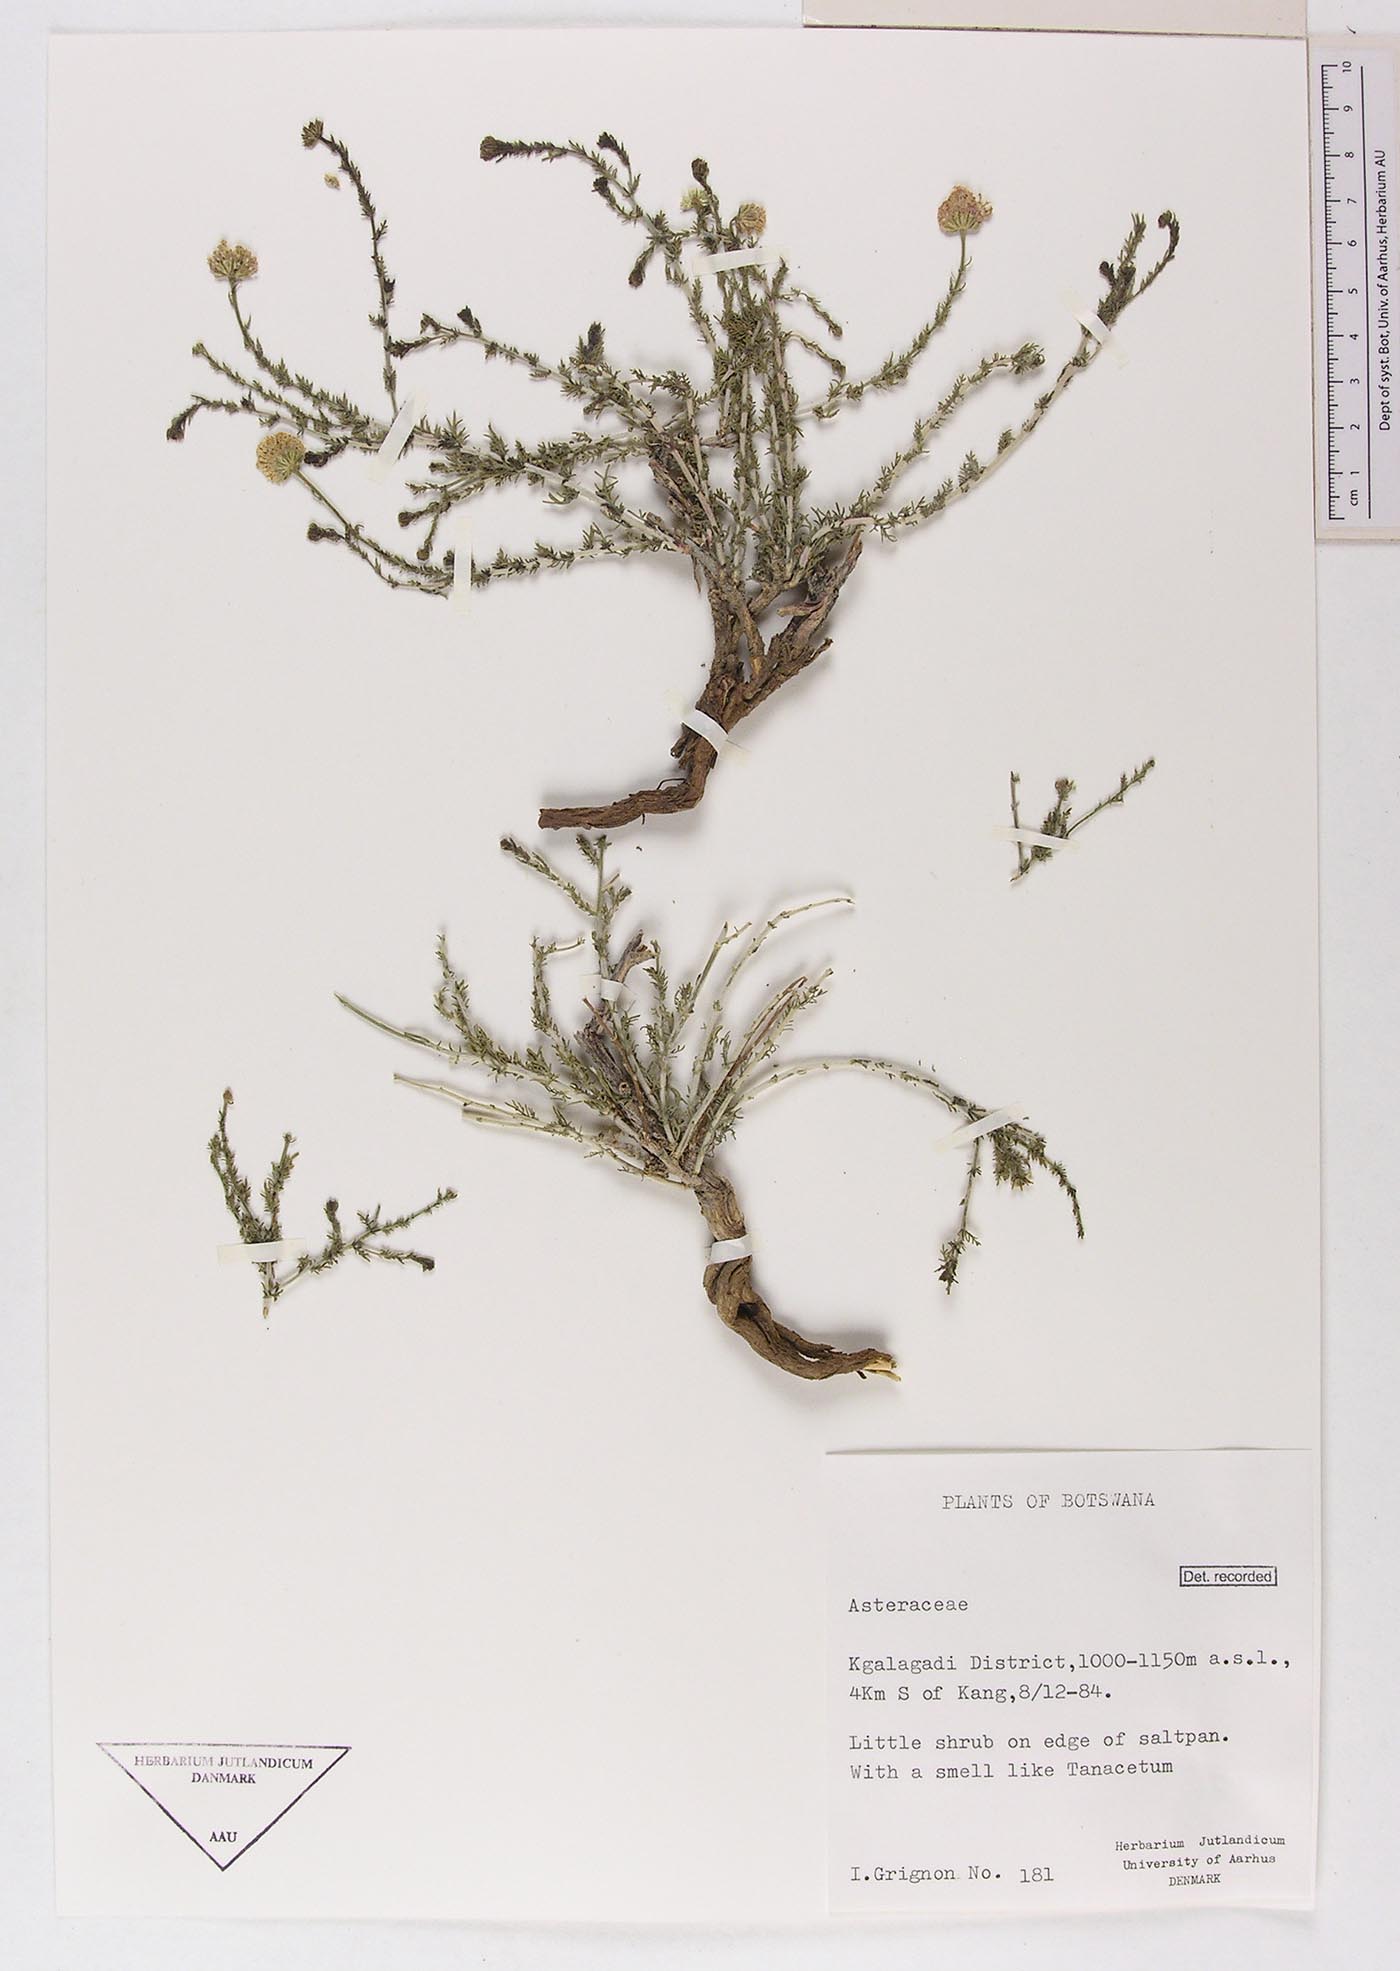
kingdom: Plantae
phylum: Tracheophyta
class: Magnoliopsida
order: Asterales
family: Asteraceae
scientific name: Asteraceae
